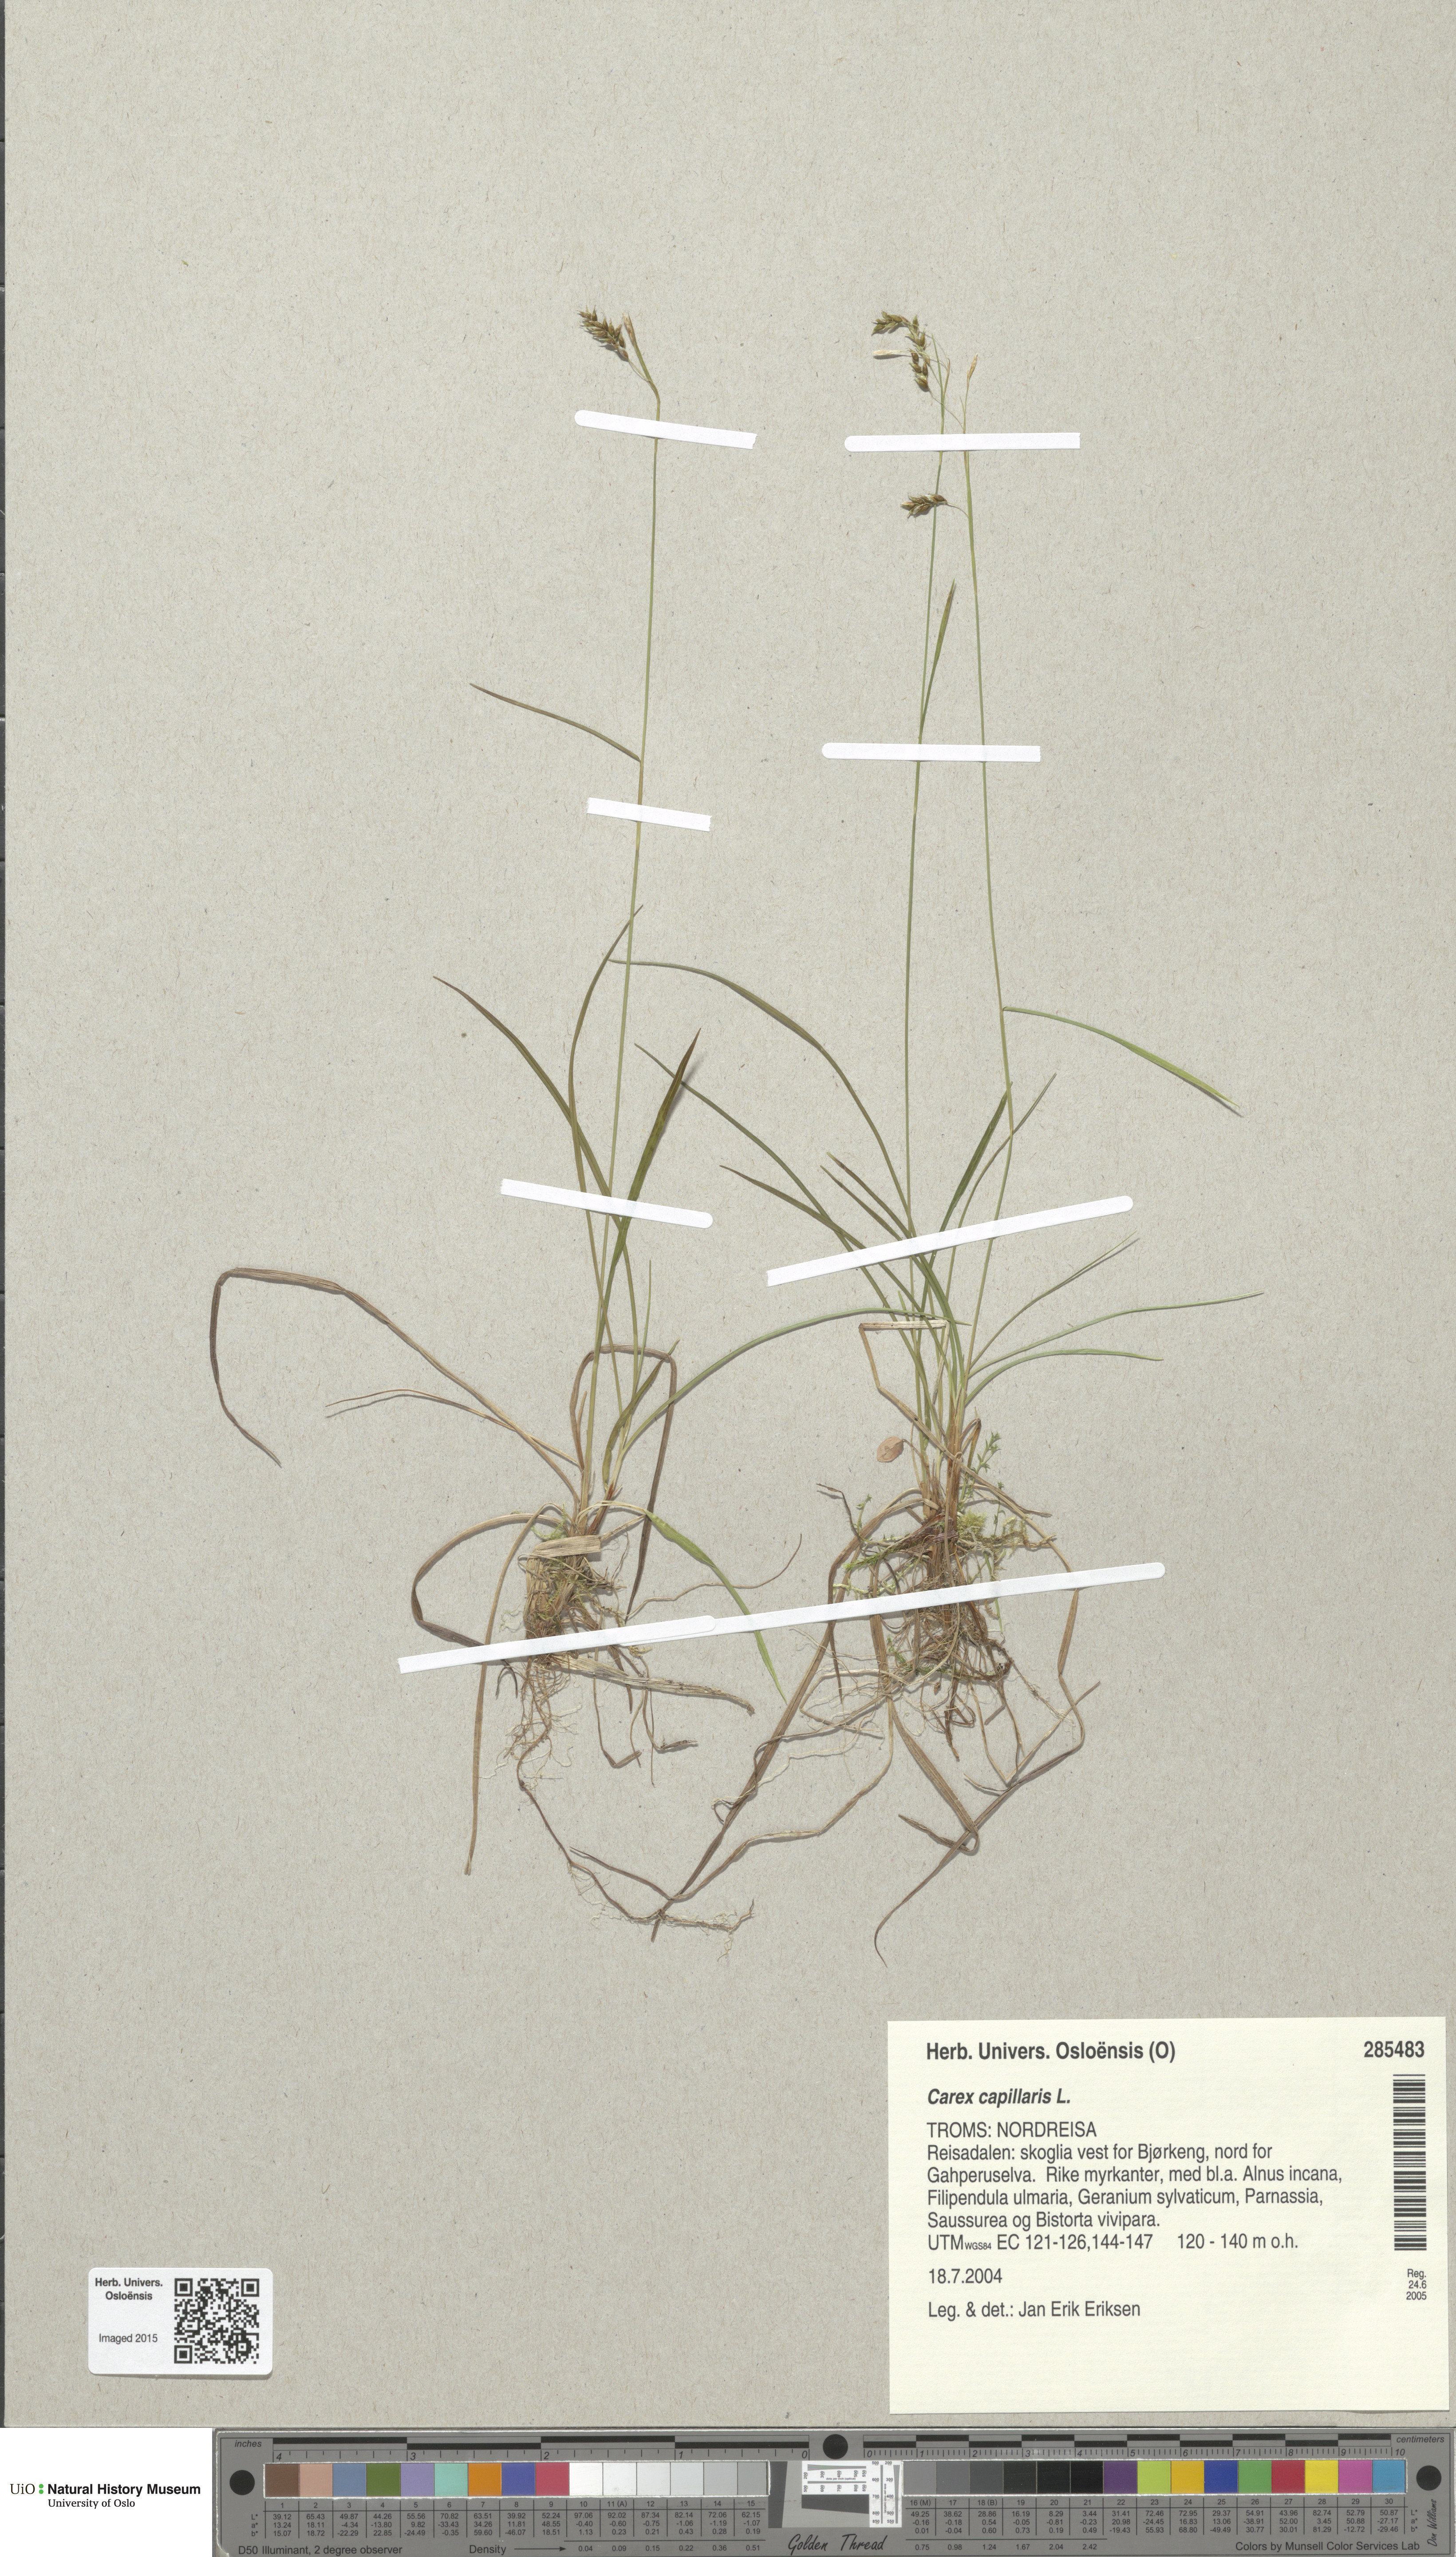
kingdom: Plantae
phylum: Tracheophyta
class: Liliopsida
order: Poales
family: Cyperaceae
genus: Carex
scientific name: Carex capillaris
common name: Hair sedge
